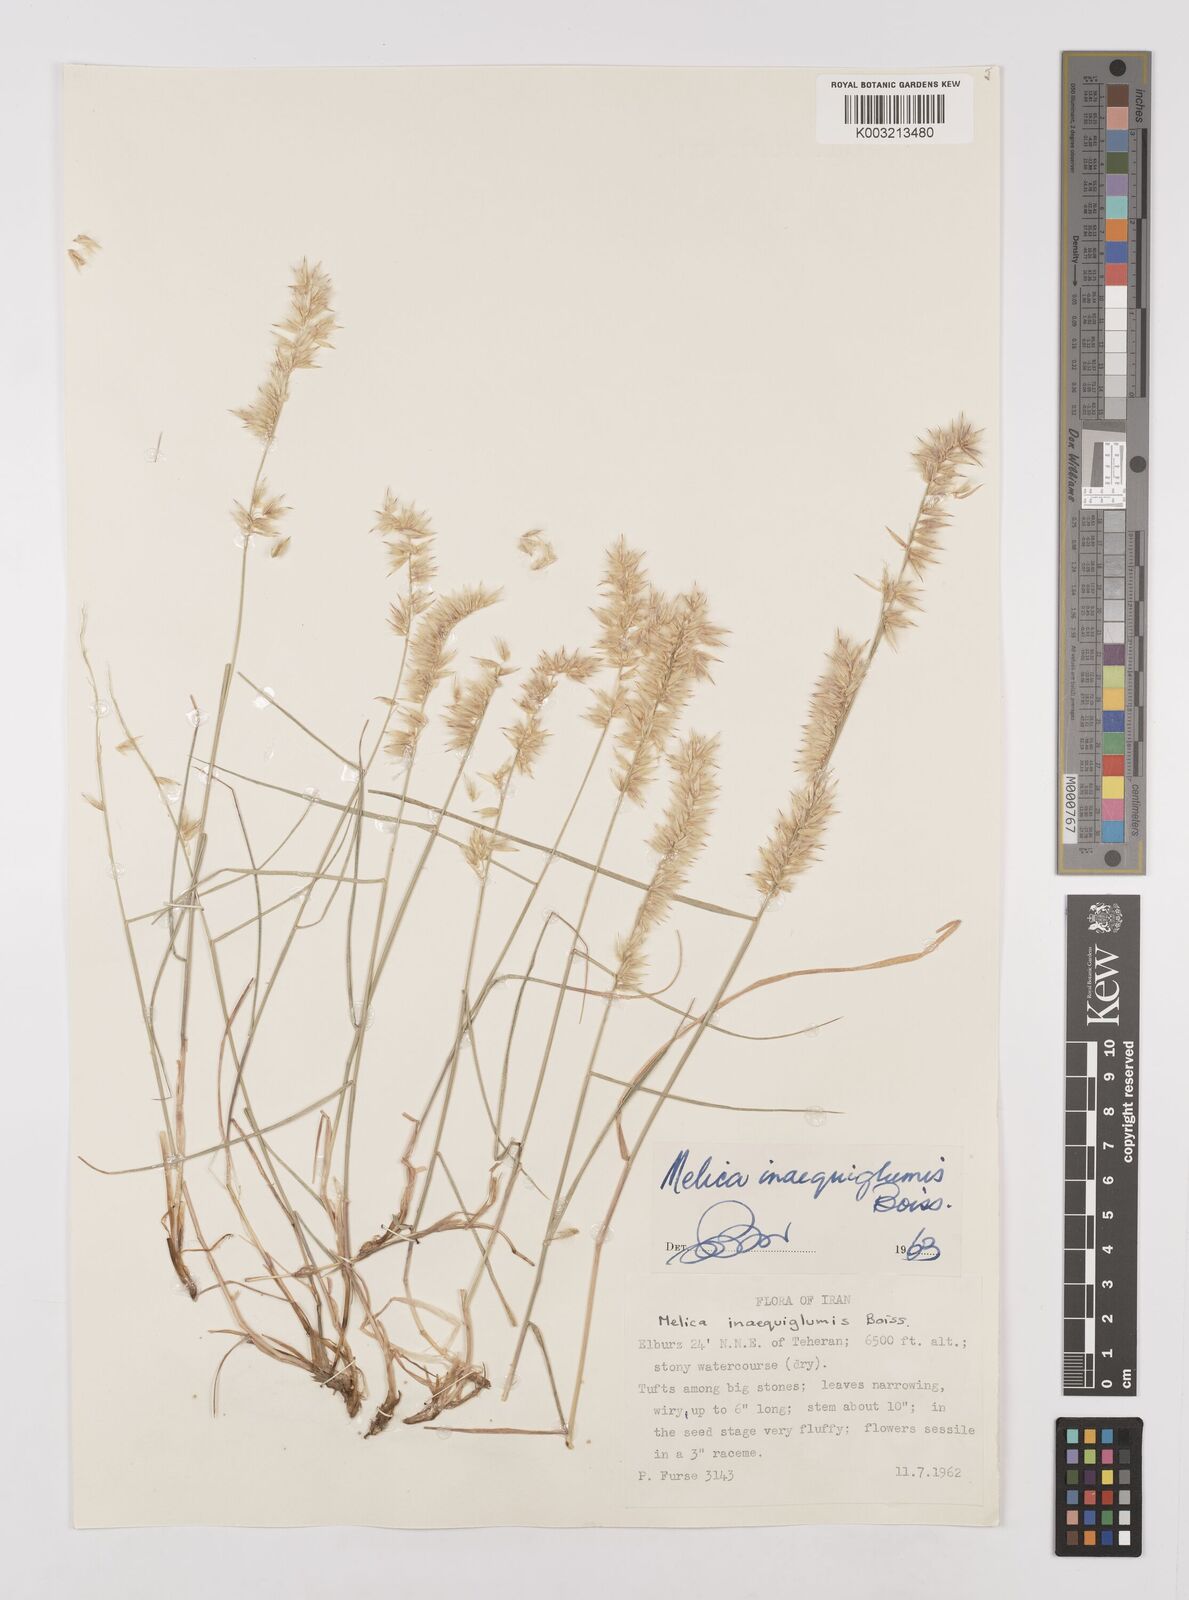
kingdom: Plantae
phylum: Tracheophyta
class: Liliopsida
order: Poales
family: Poaceae
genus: Melica
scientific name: Melica persica
